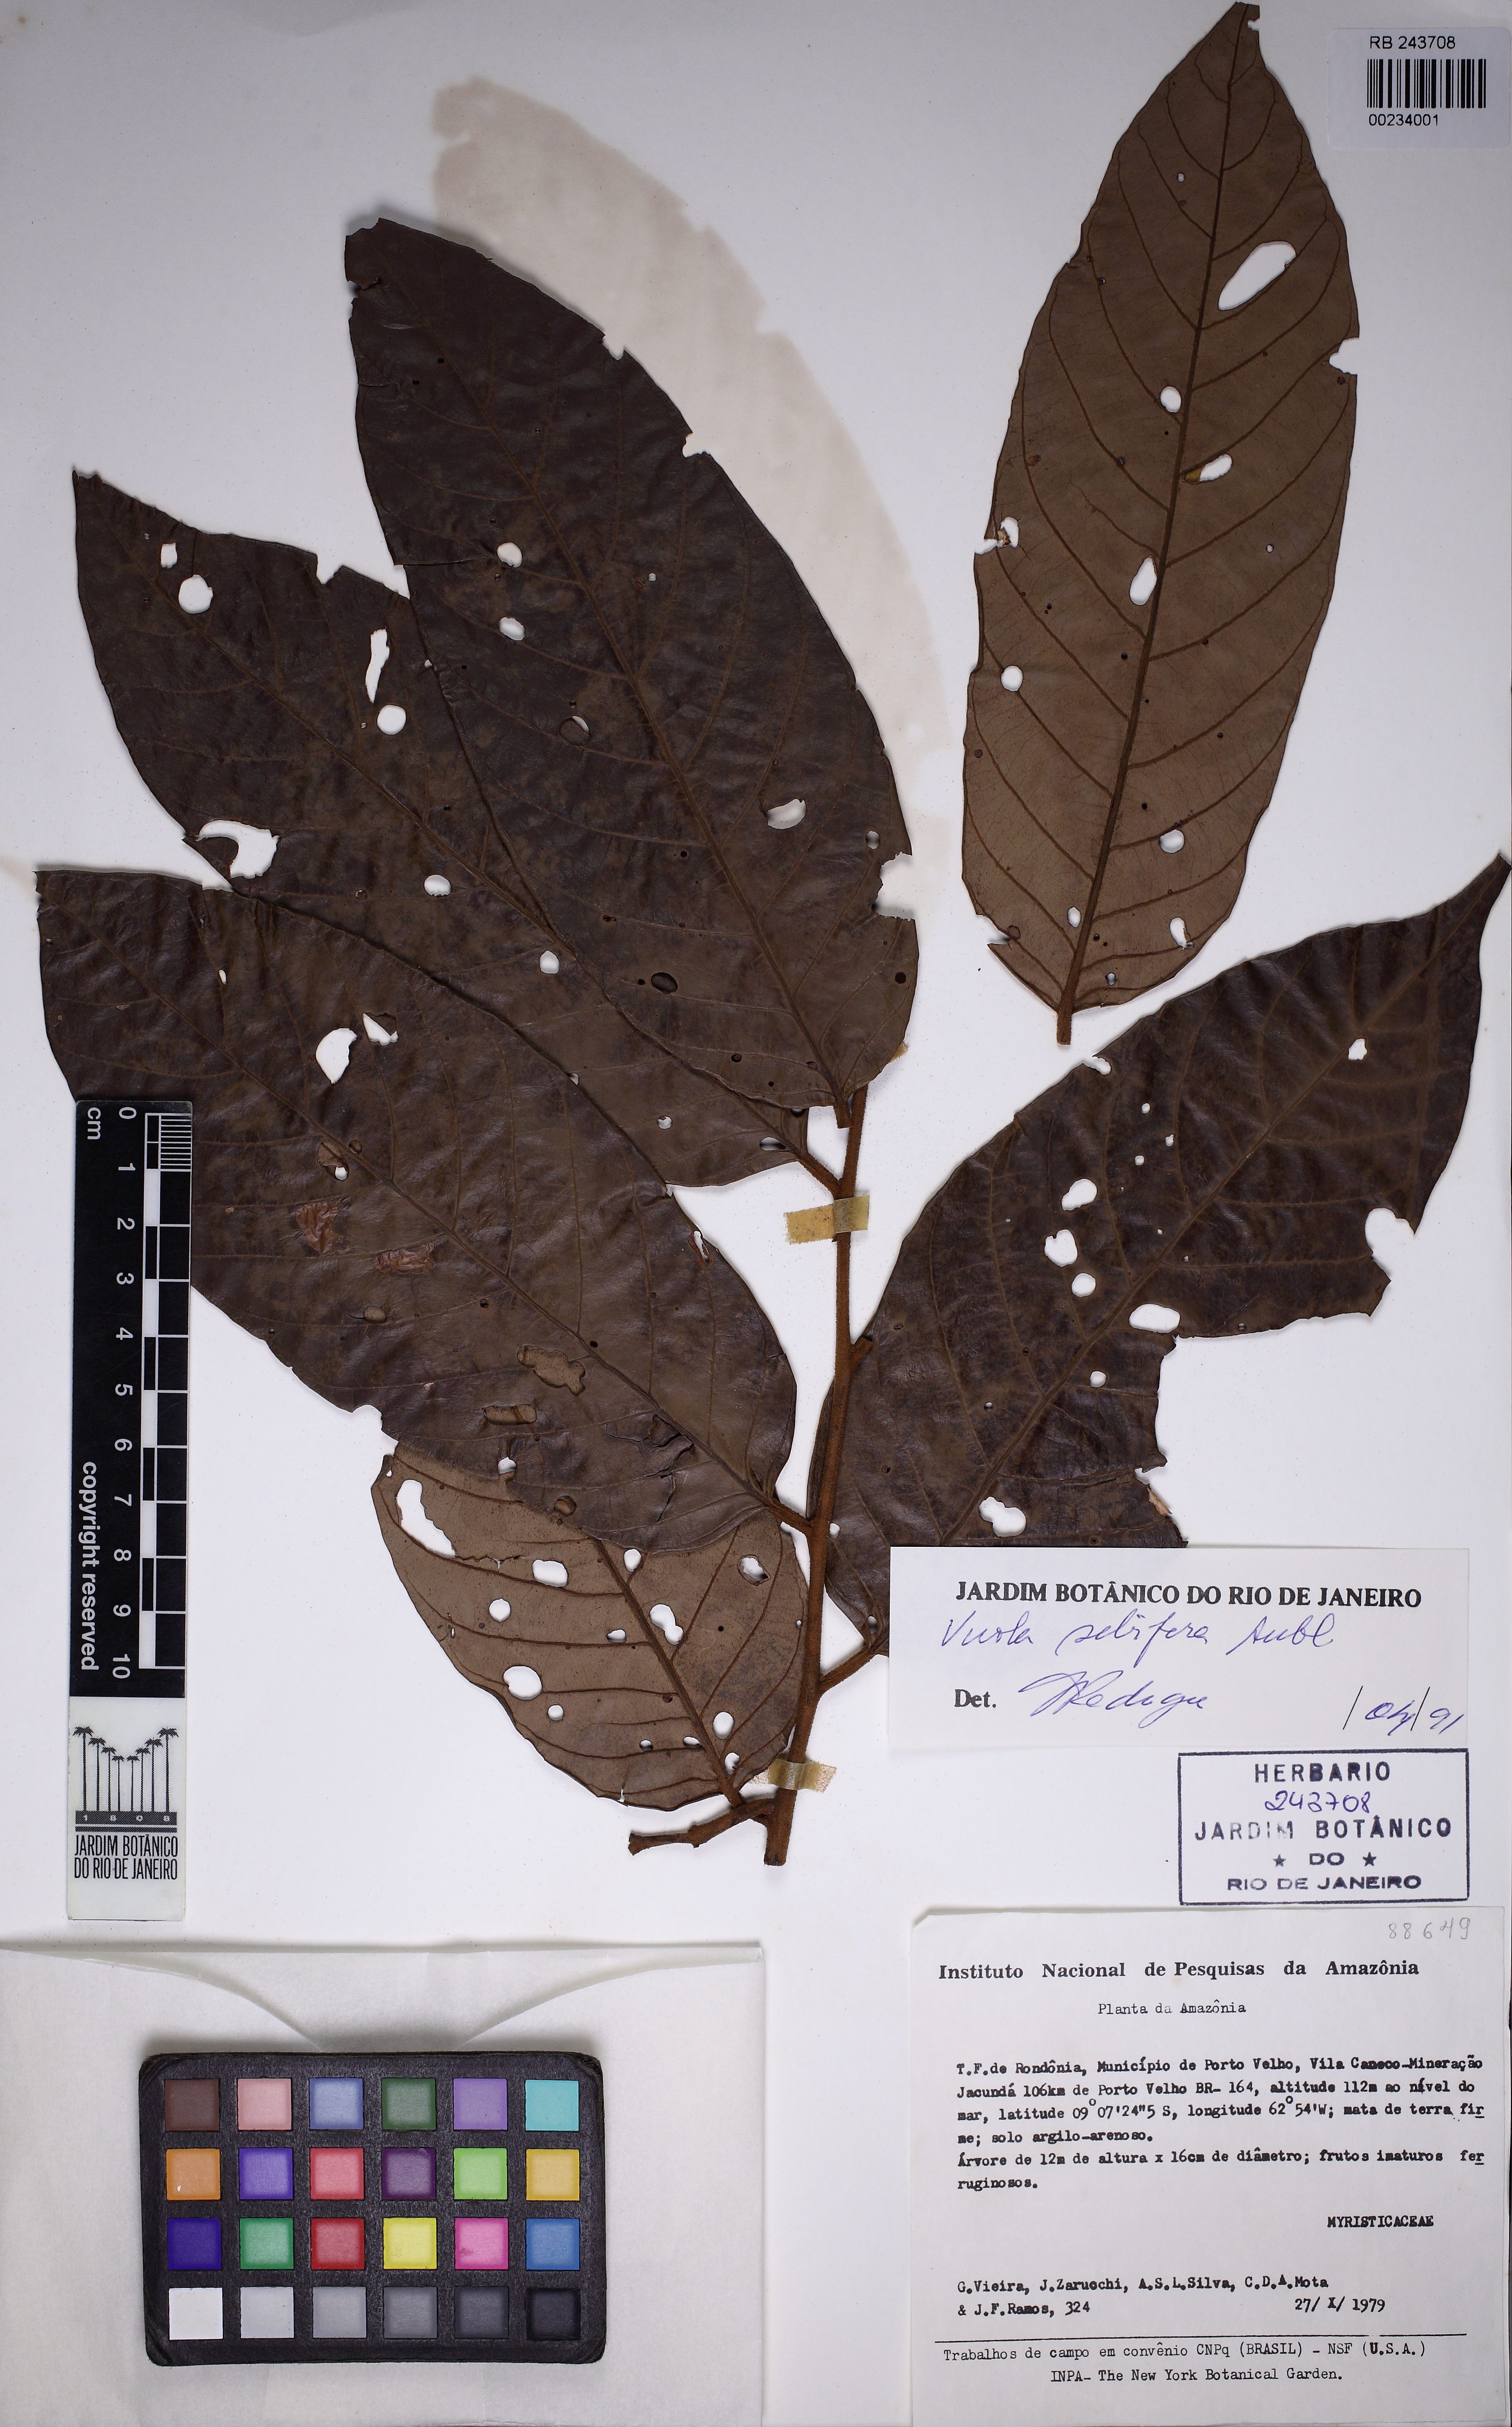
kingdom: Plantae
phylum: Tracheophyta
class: Magnoliopsida
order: Magnoliales
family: Myristicaceae
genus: Virola
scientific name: Virola sebifera
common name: Red ucuuba
